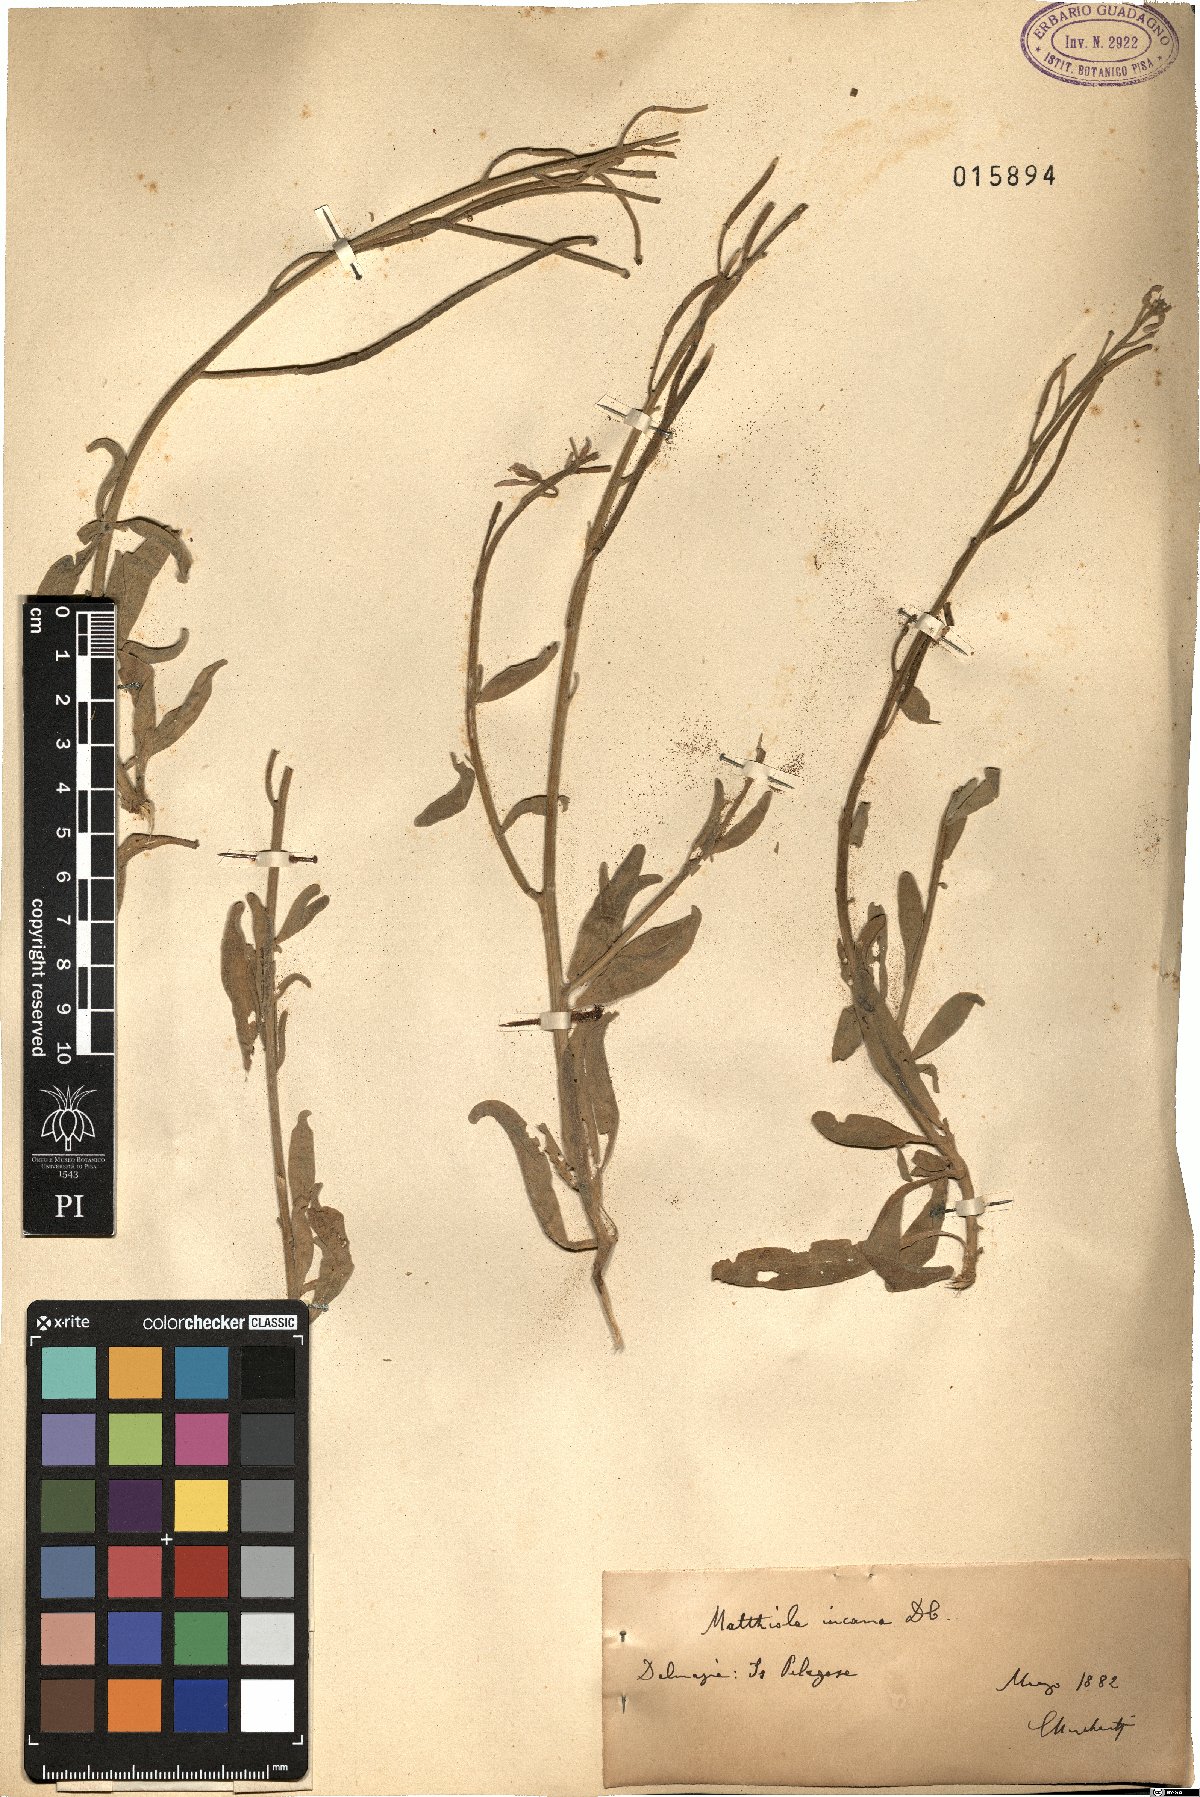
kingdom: Plantae
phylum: Tracheophyta
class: Magnoliopsida
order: Brassicales
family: Brassicaceae
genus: Matthiola
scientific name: Matthiola incana
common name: Hoary stock
